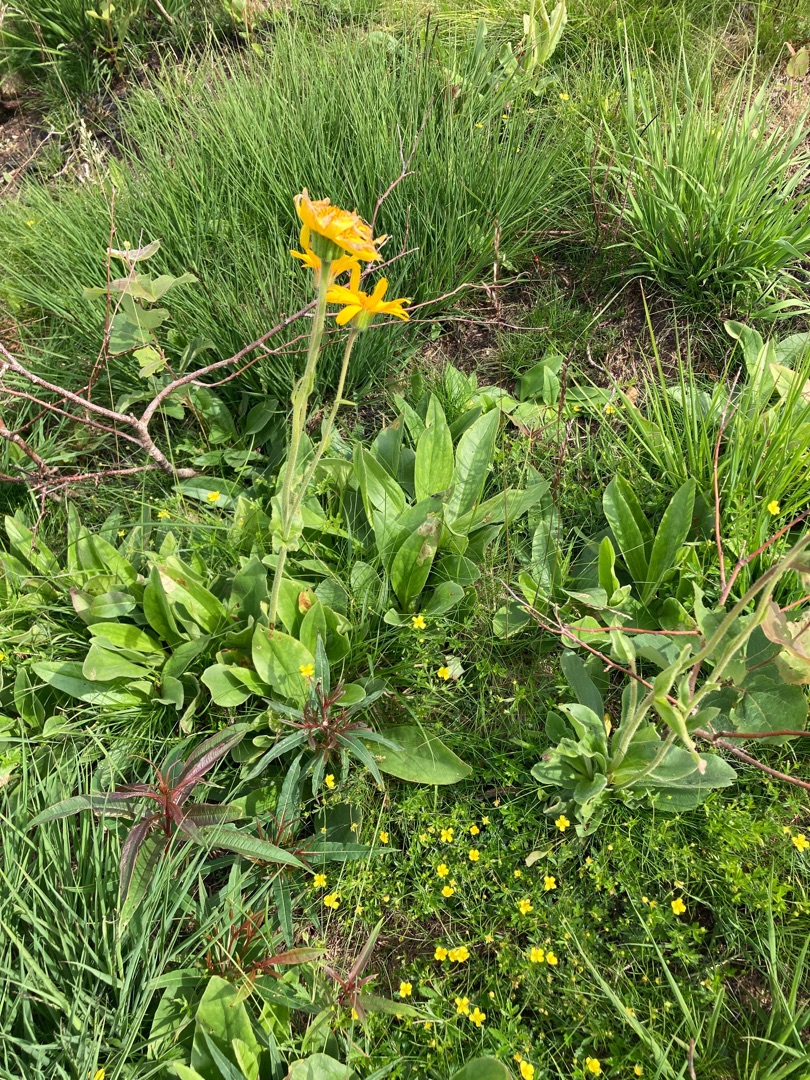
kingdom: Plantae
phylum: Tracheophyta
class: Magnoliopsida
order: Asterales
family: Asteraceae
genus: Arnica
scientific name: Arnica montana
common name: Guldblomme
